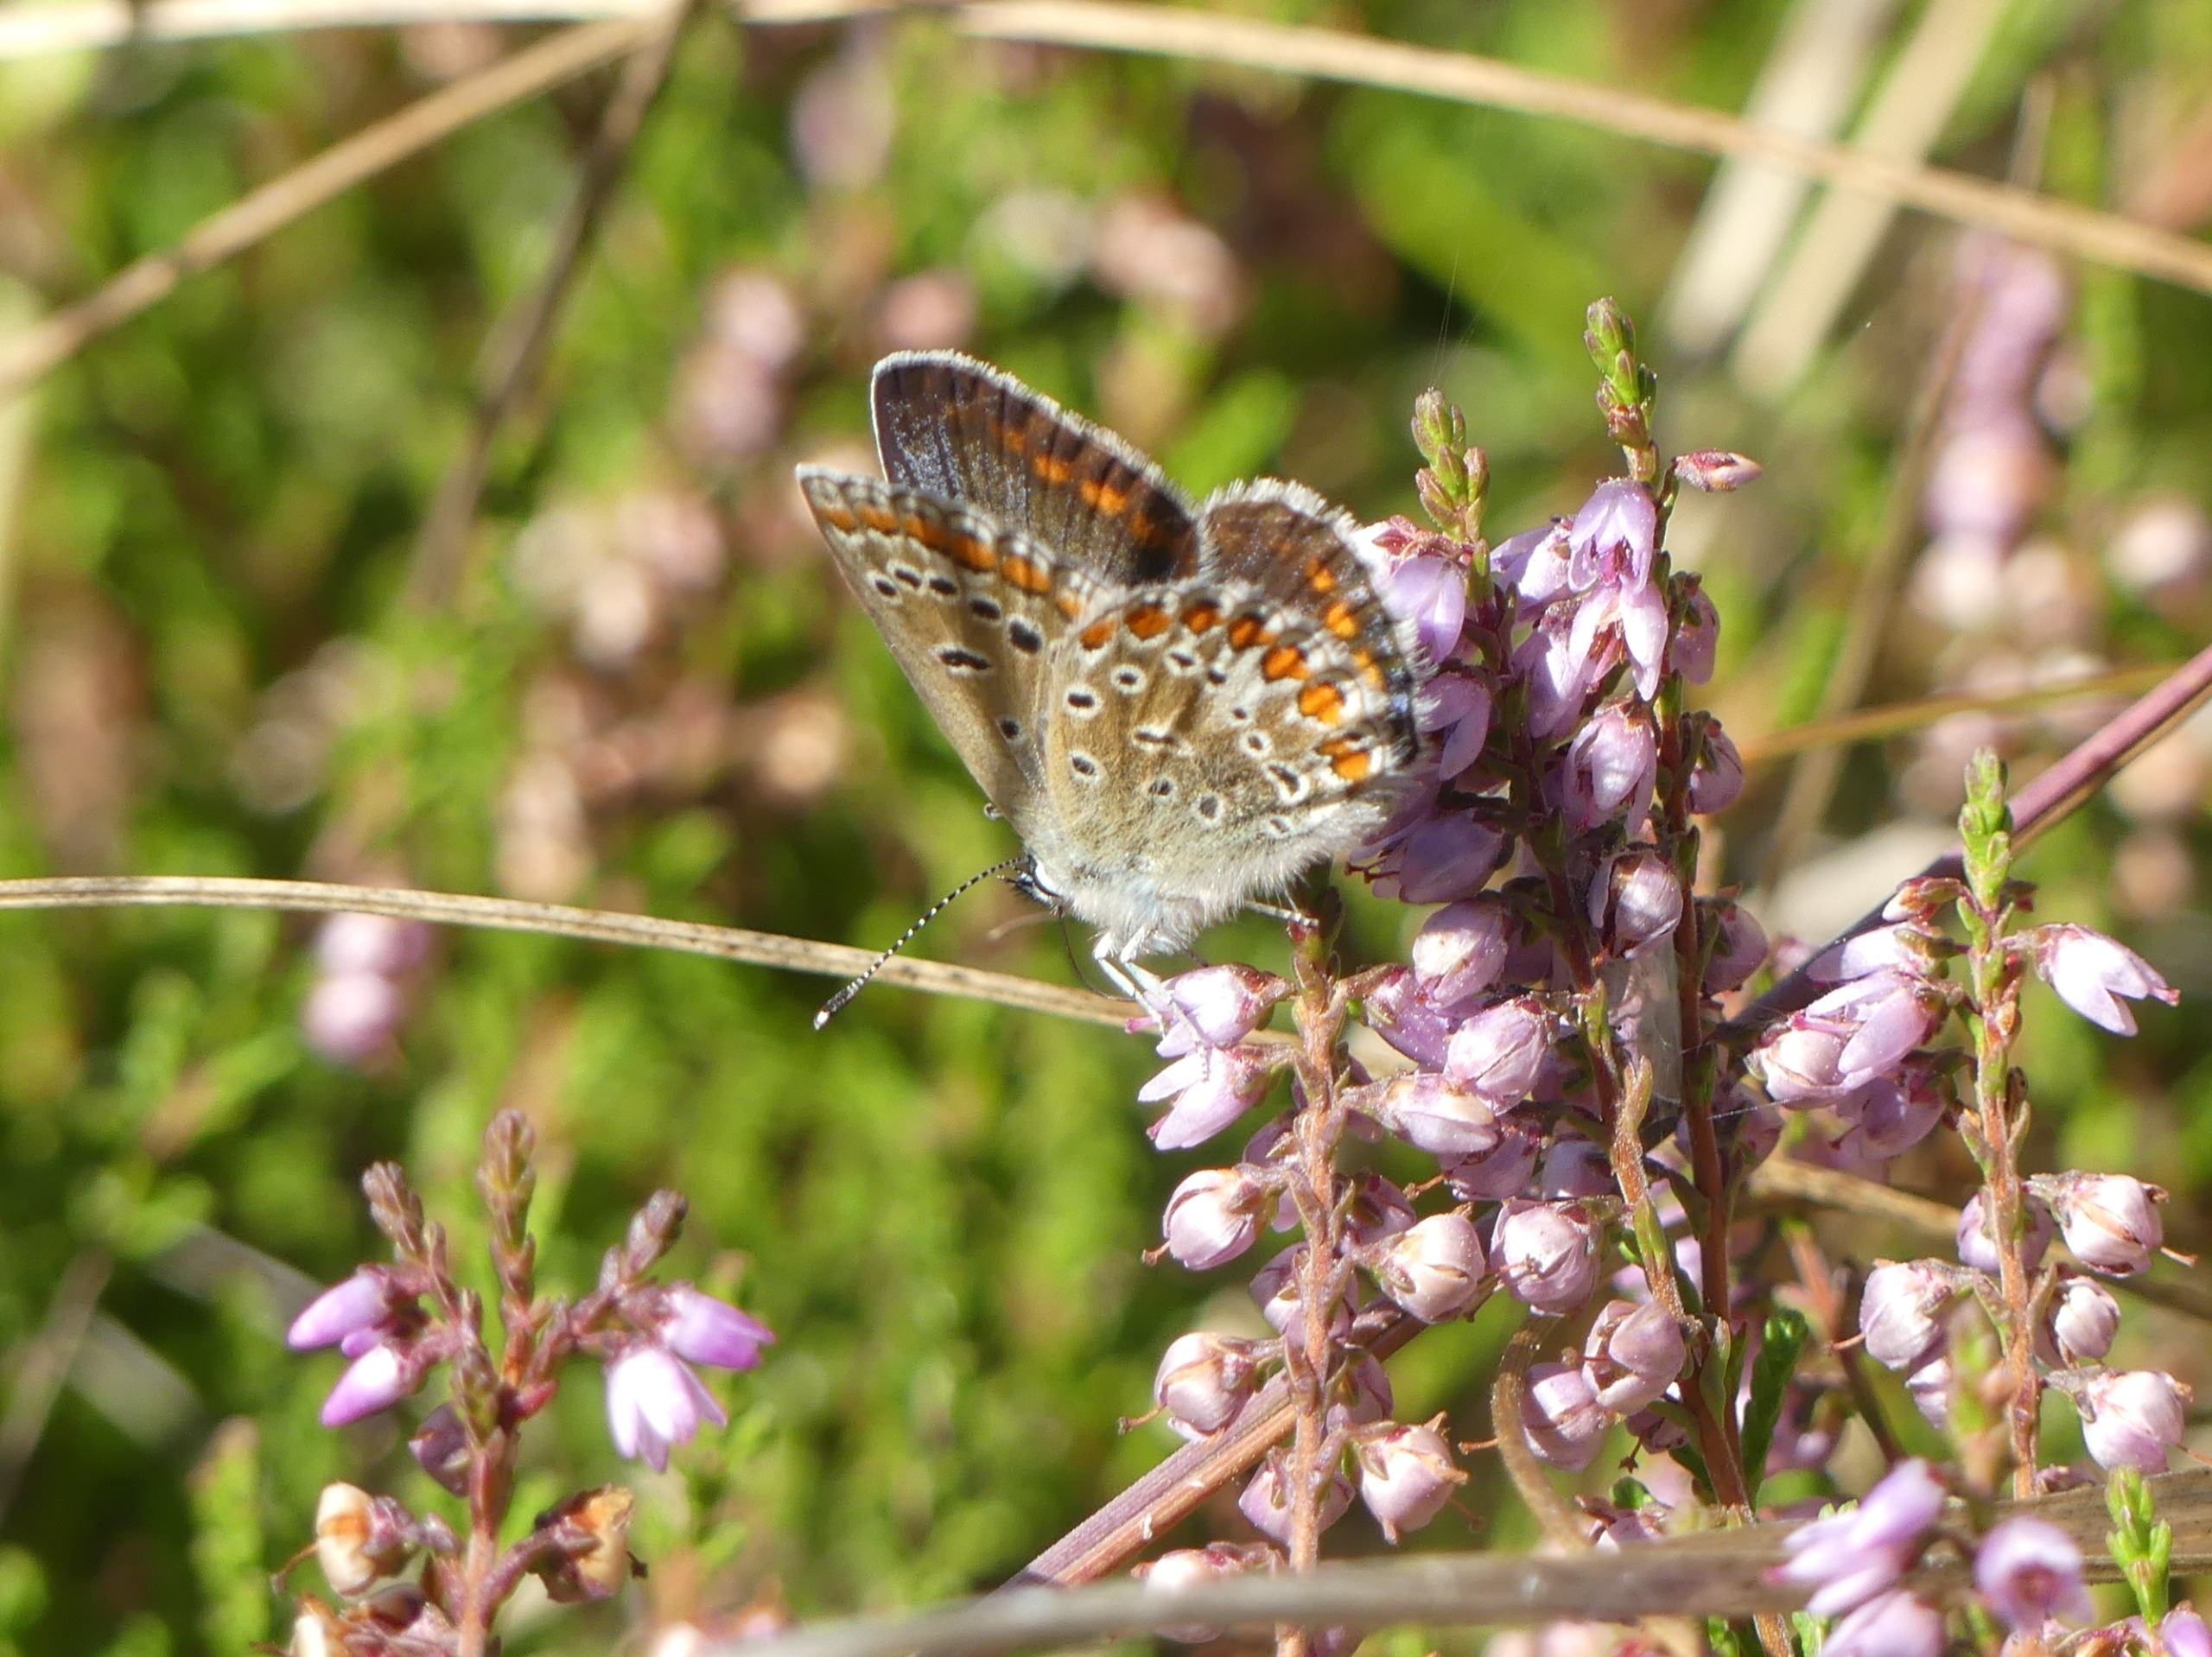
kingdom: Animalia
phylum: Arthropoda
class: Insecta
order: Lepidoptera
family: Lycaenidae
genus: Polyommatus
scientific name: Polyommatus icarus
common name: Almindelig blåfugl
